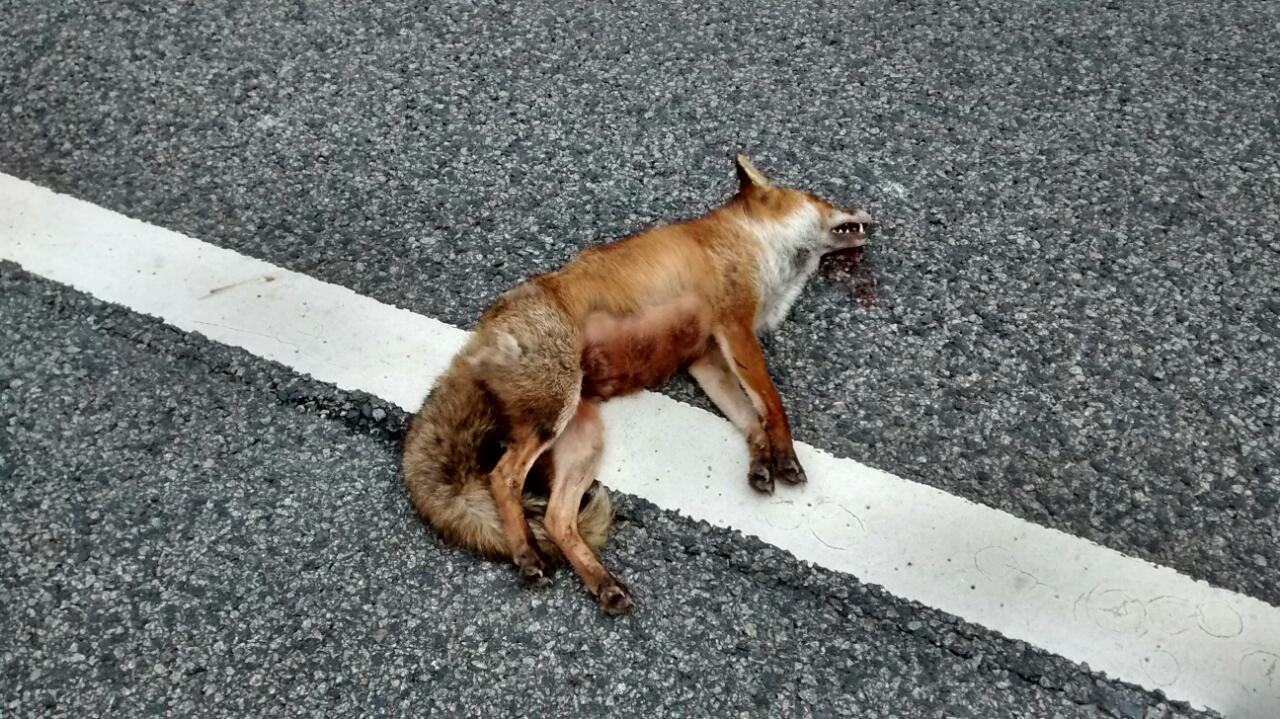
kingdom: Animalia
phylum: Chordata
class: Mammalia
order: Carnivora
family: Canidae
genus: Vulpes
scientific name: Vulpes vulpes
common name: Red fox
